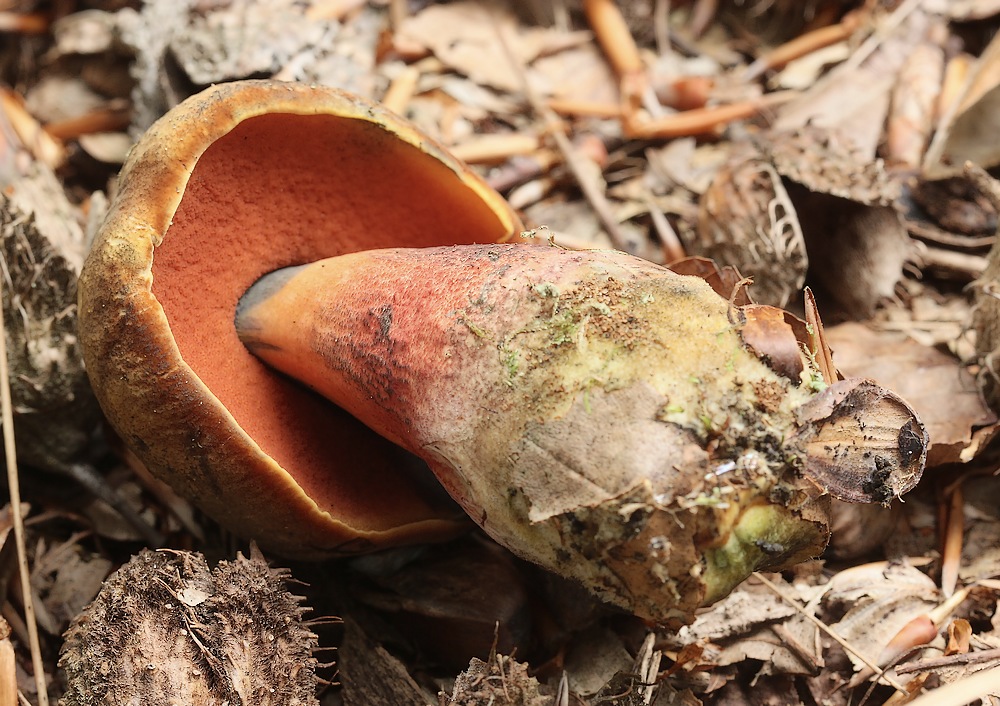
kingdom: Fungi
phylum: Basidiomycota
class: Agaricomycetes
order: Boletales
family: Boletaceae
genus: Neoboletus
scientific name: Neoboletus erythropus
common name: punktstokket indigorørhat
